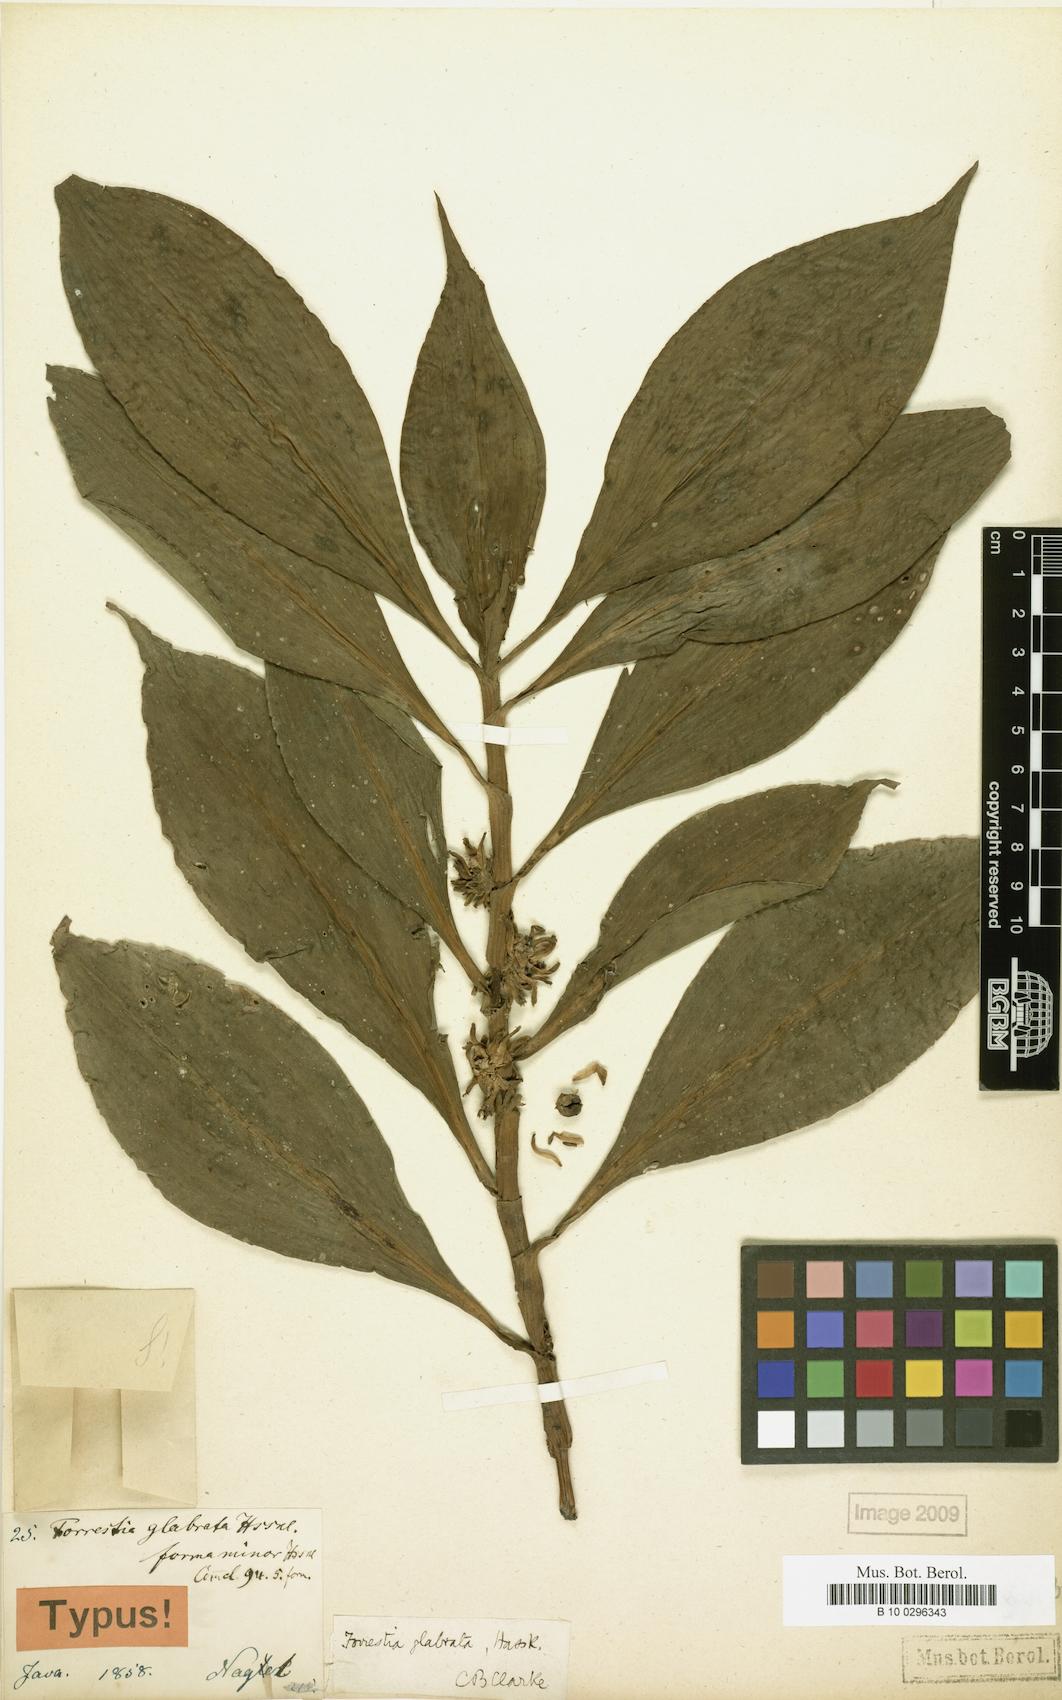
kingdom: Plantae
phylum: Tracheophyta
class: Liliopsida
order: Commelinales
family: Commelinaceae
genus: Amischotolype
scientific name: Amischotolype glabrata
